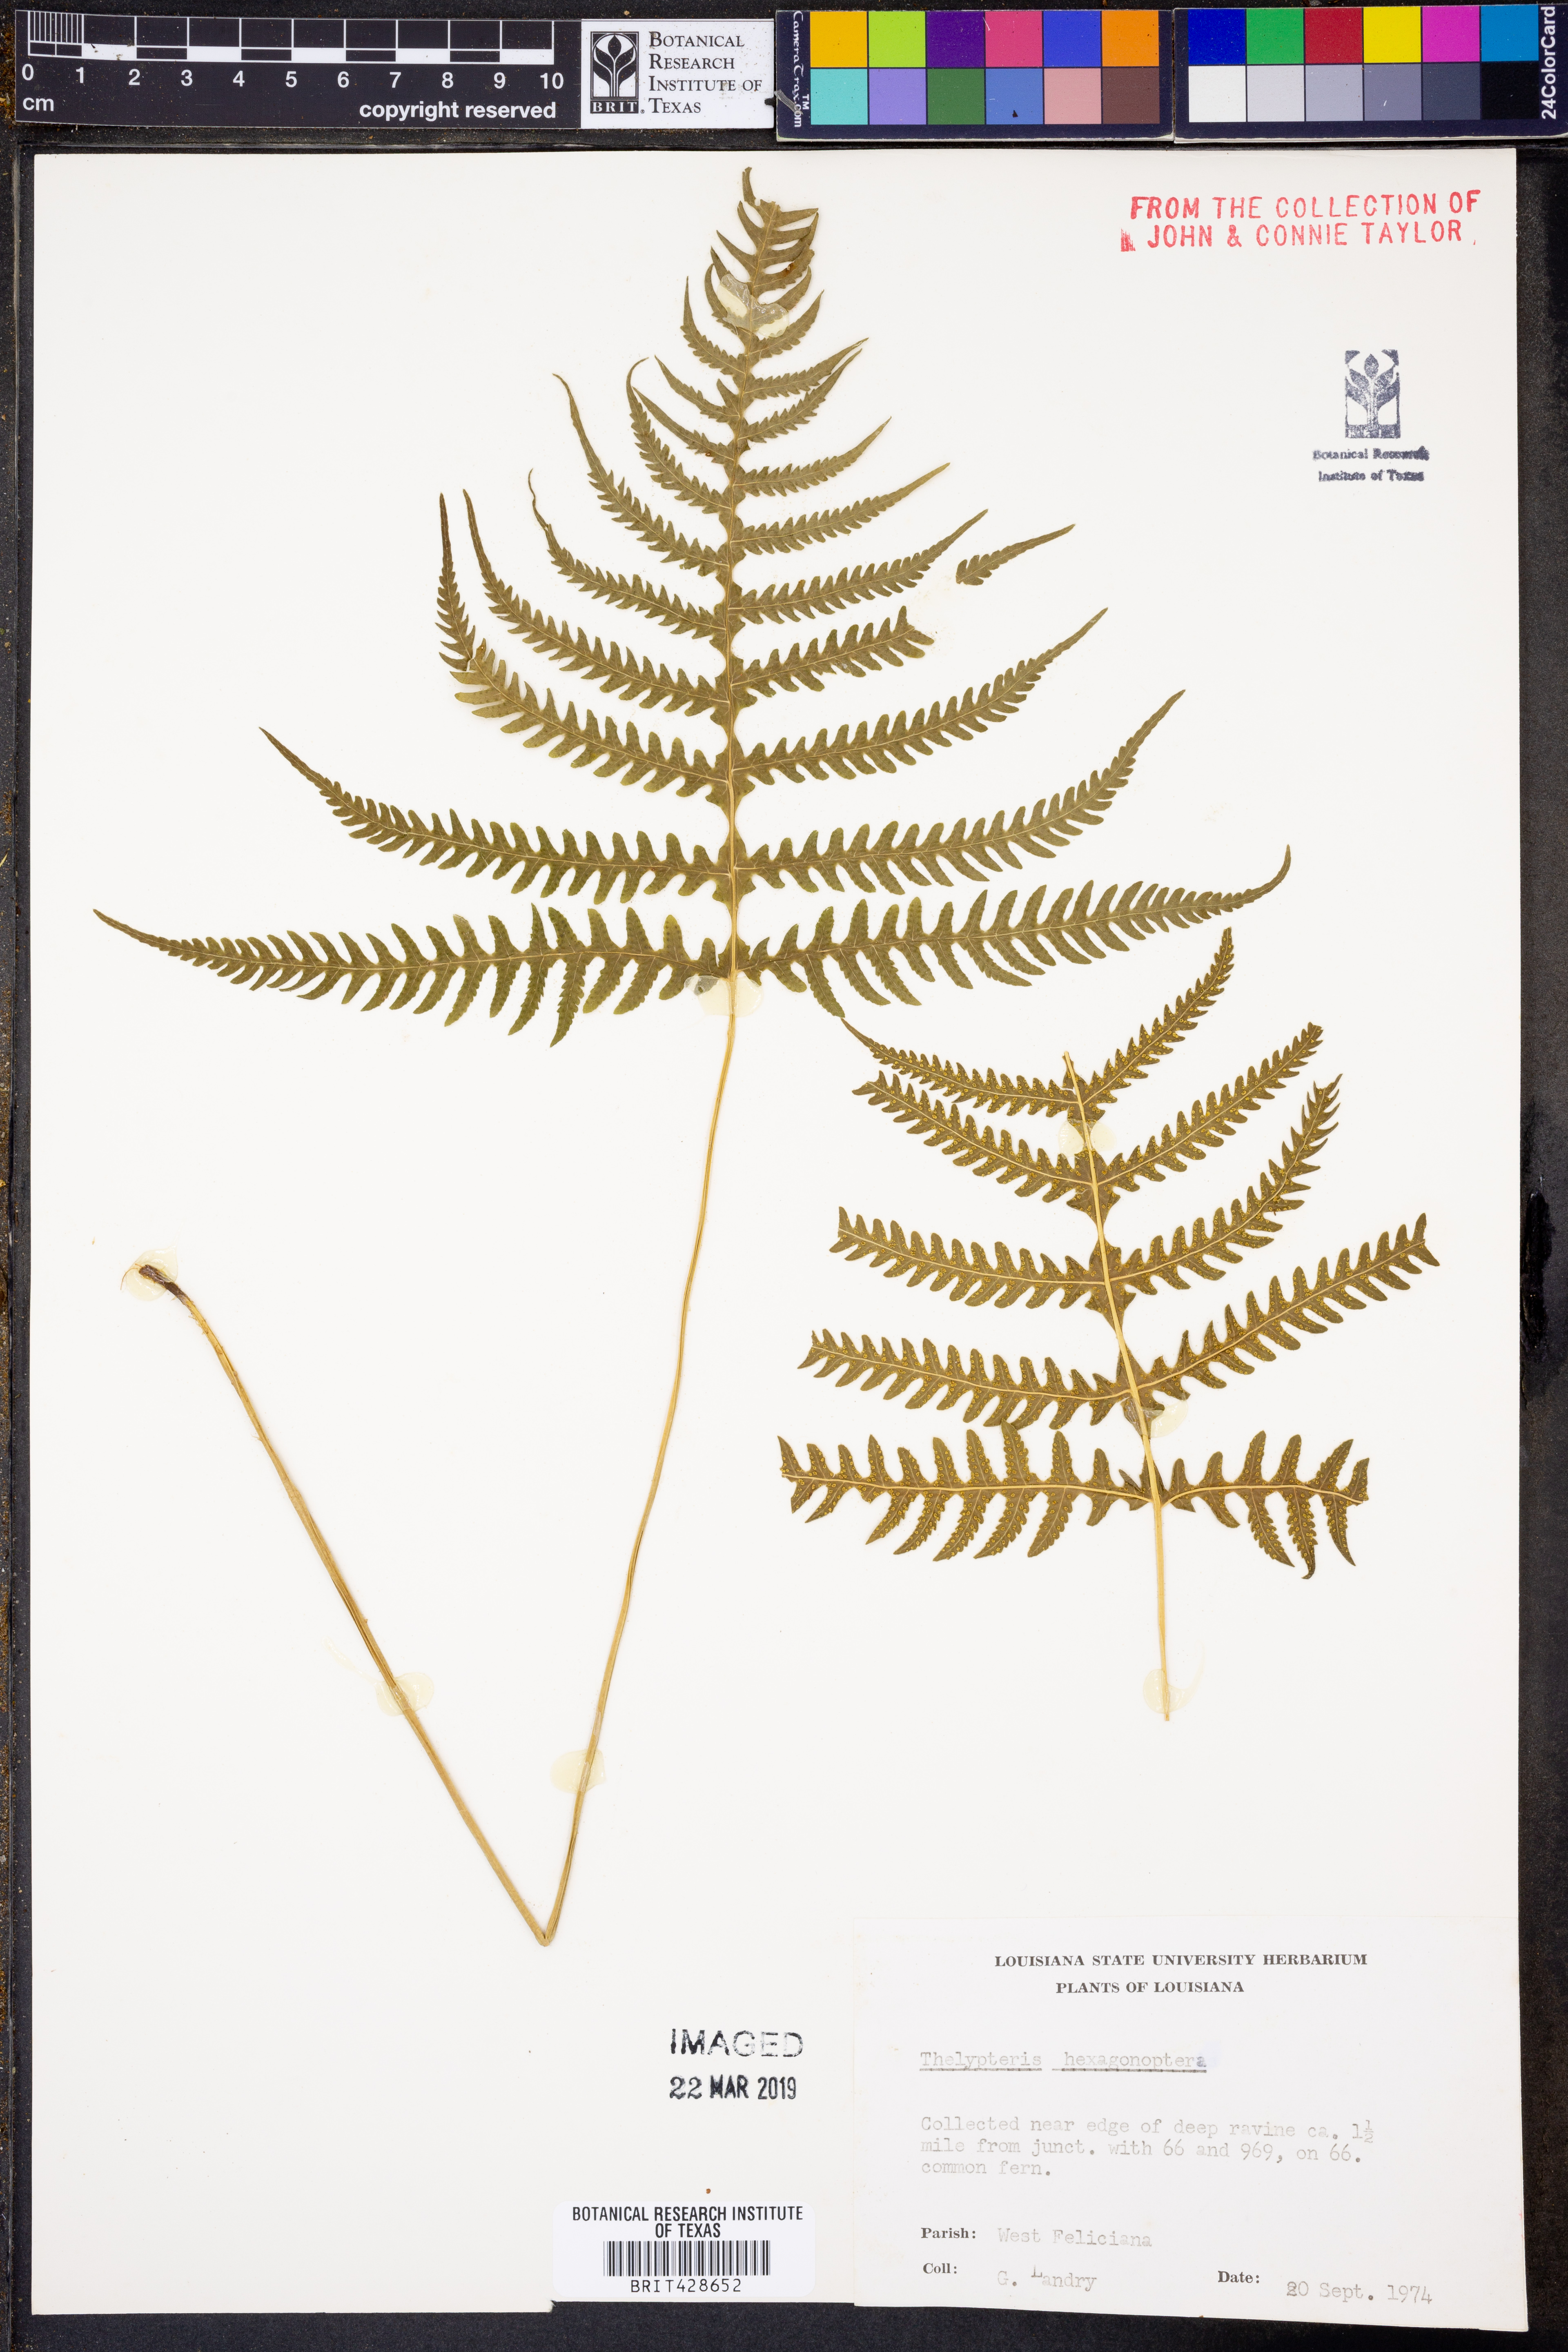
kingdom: Plantae
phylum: Tracheophyta
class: Polypodiopsida
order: Polypodiales
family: Thelypteridaceae
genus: Phegopteris
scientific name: Phegopteris hexagonoptera
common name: Broad beech fern
